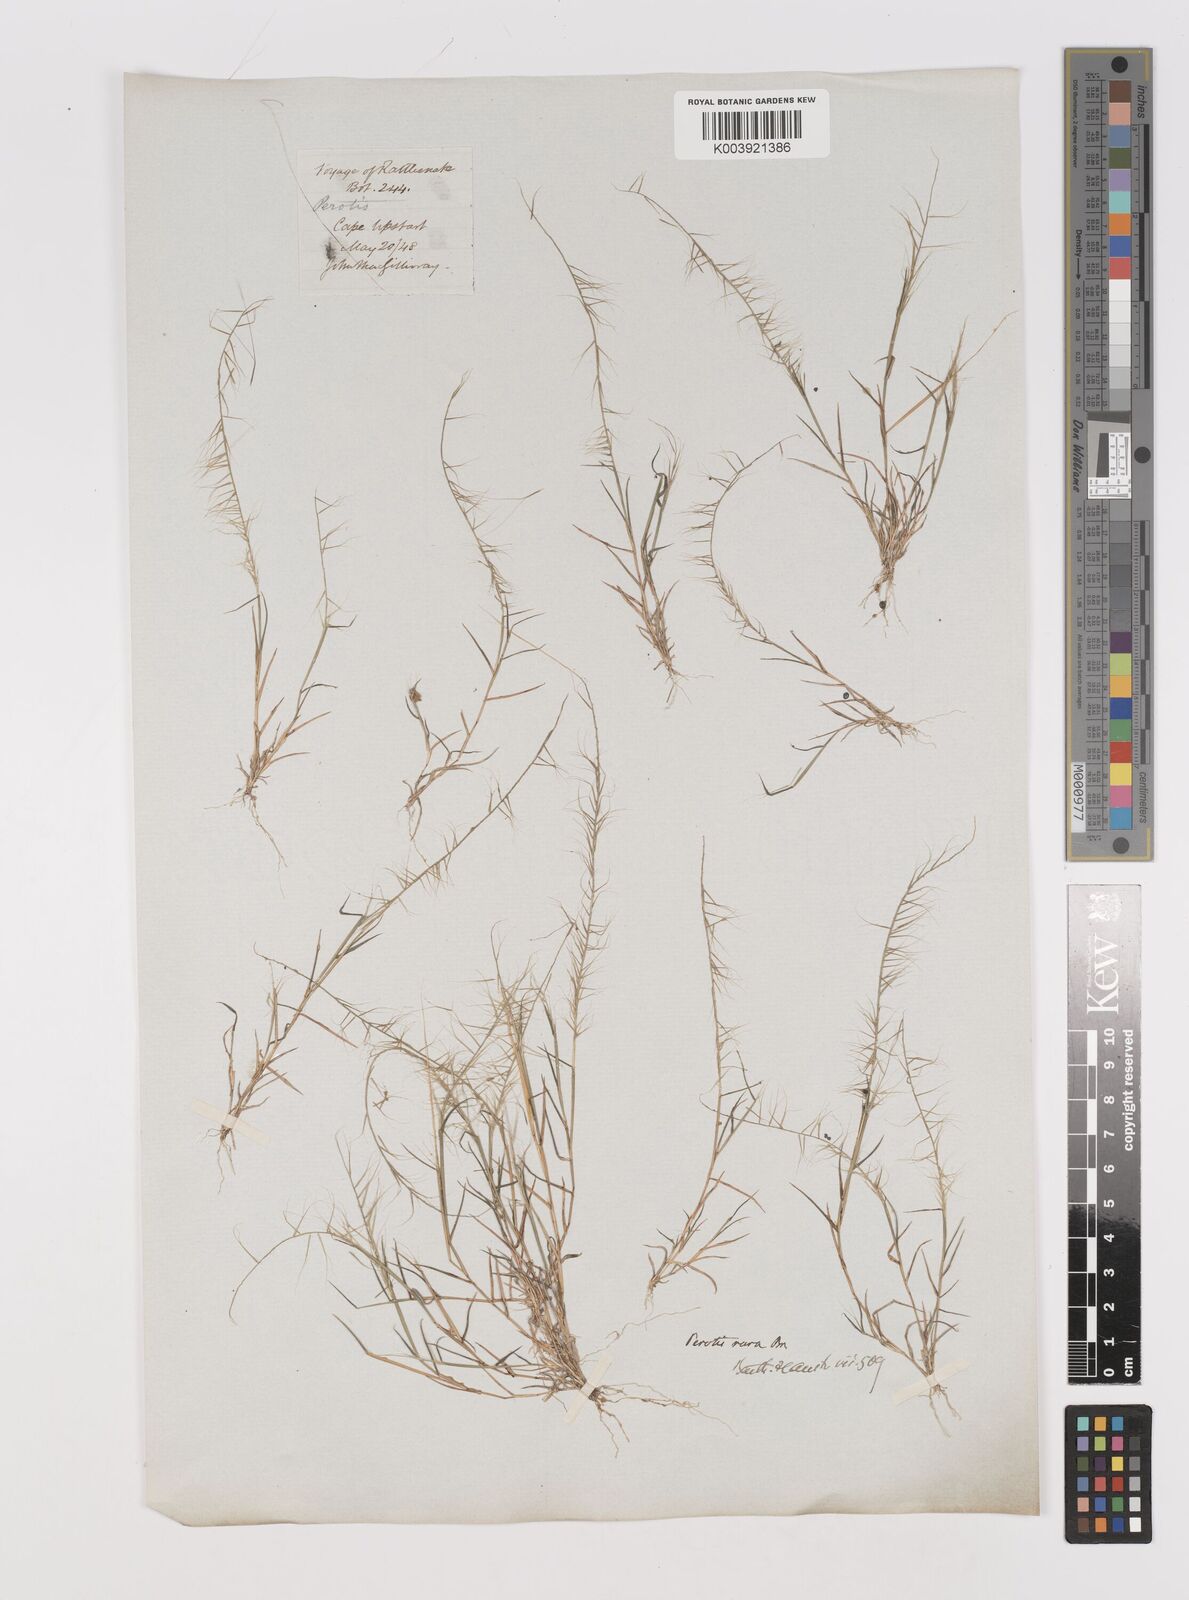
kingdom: Plantae
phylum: Tracheophyta
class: Liliopsida
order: Poales
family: Poaceae
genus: Perotis
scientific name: Perotis rara
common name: Comet grass
